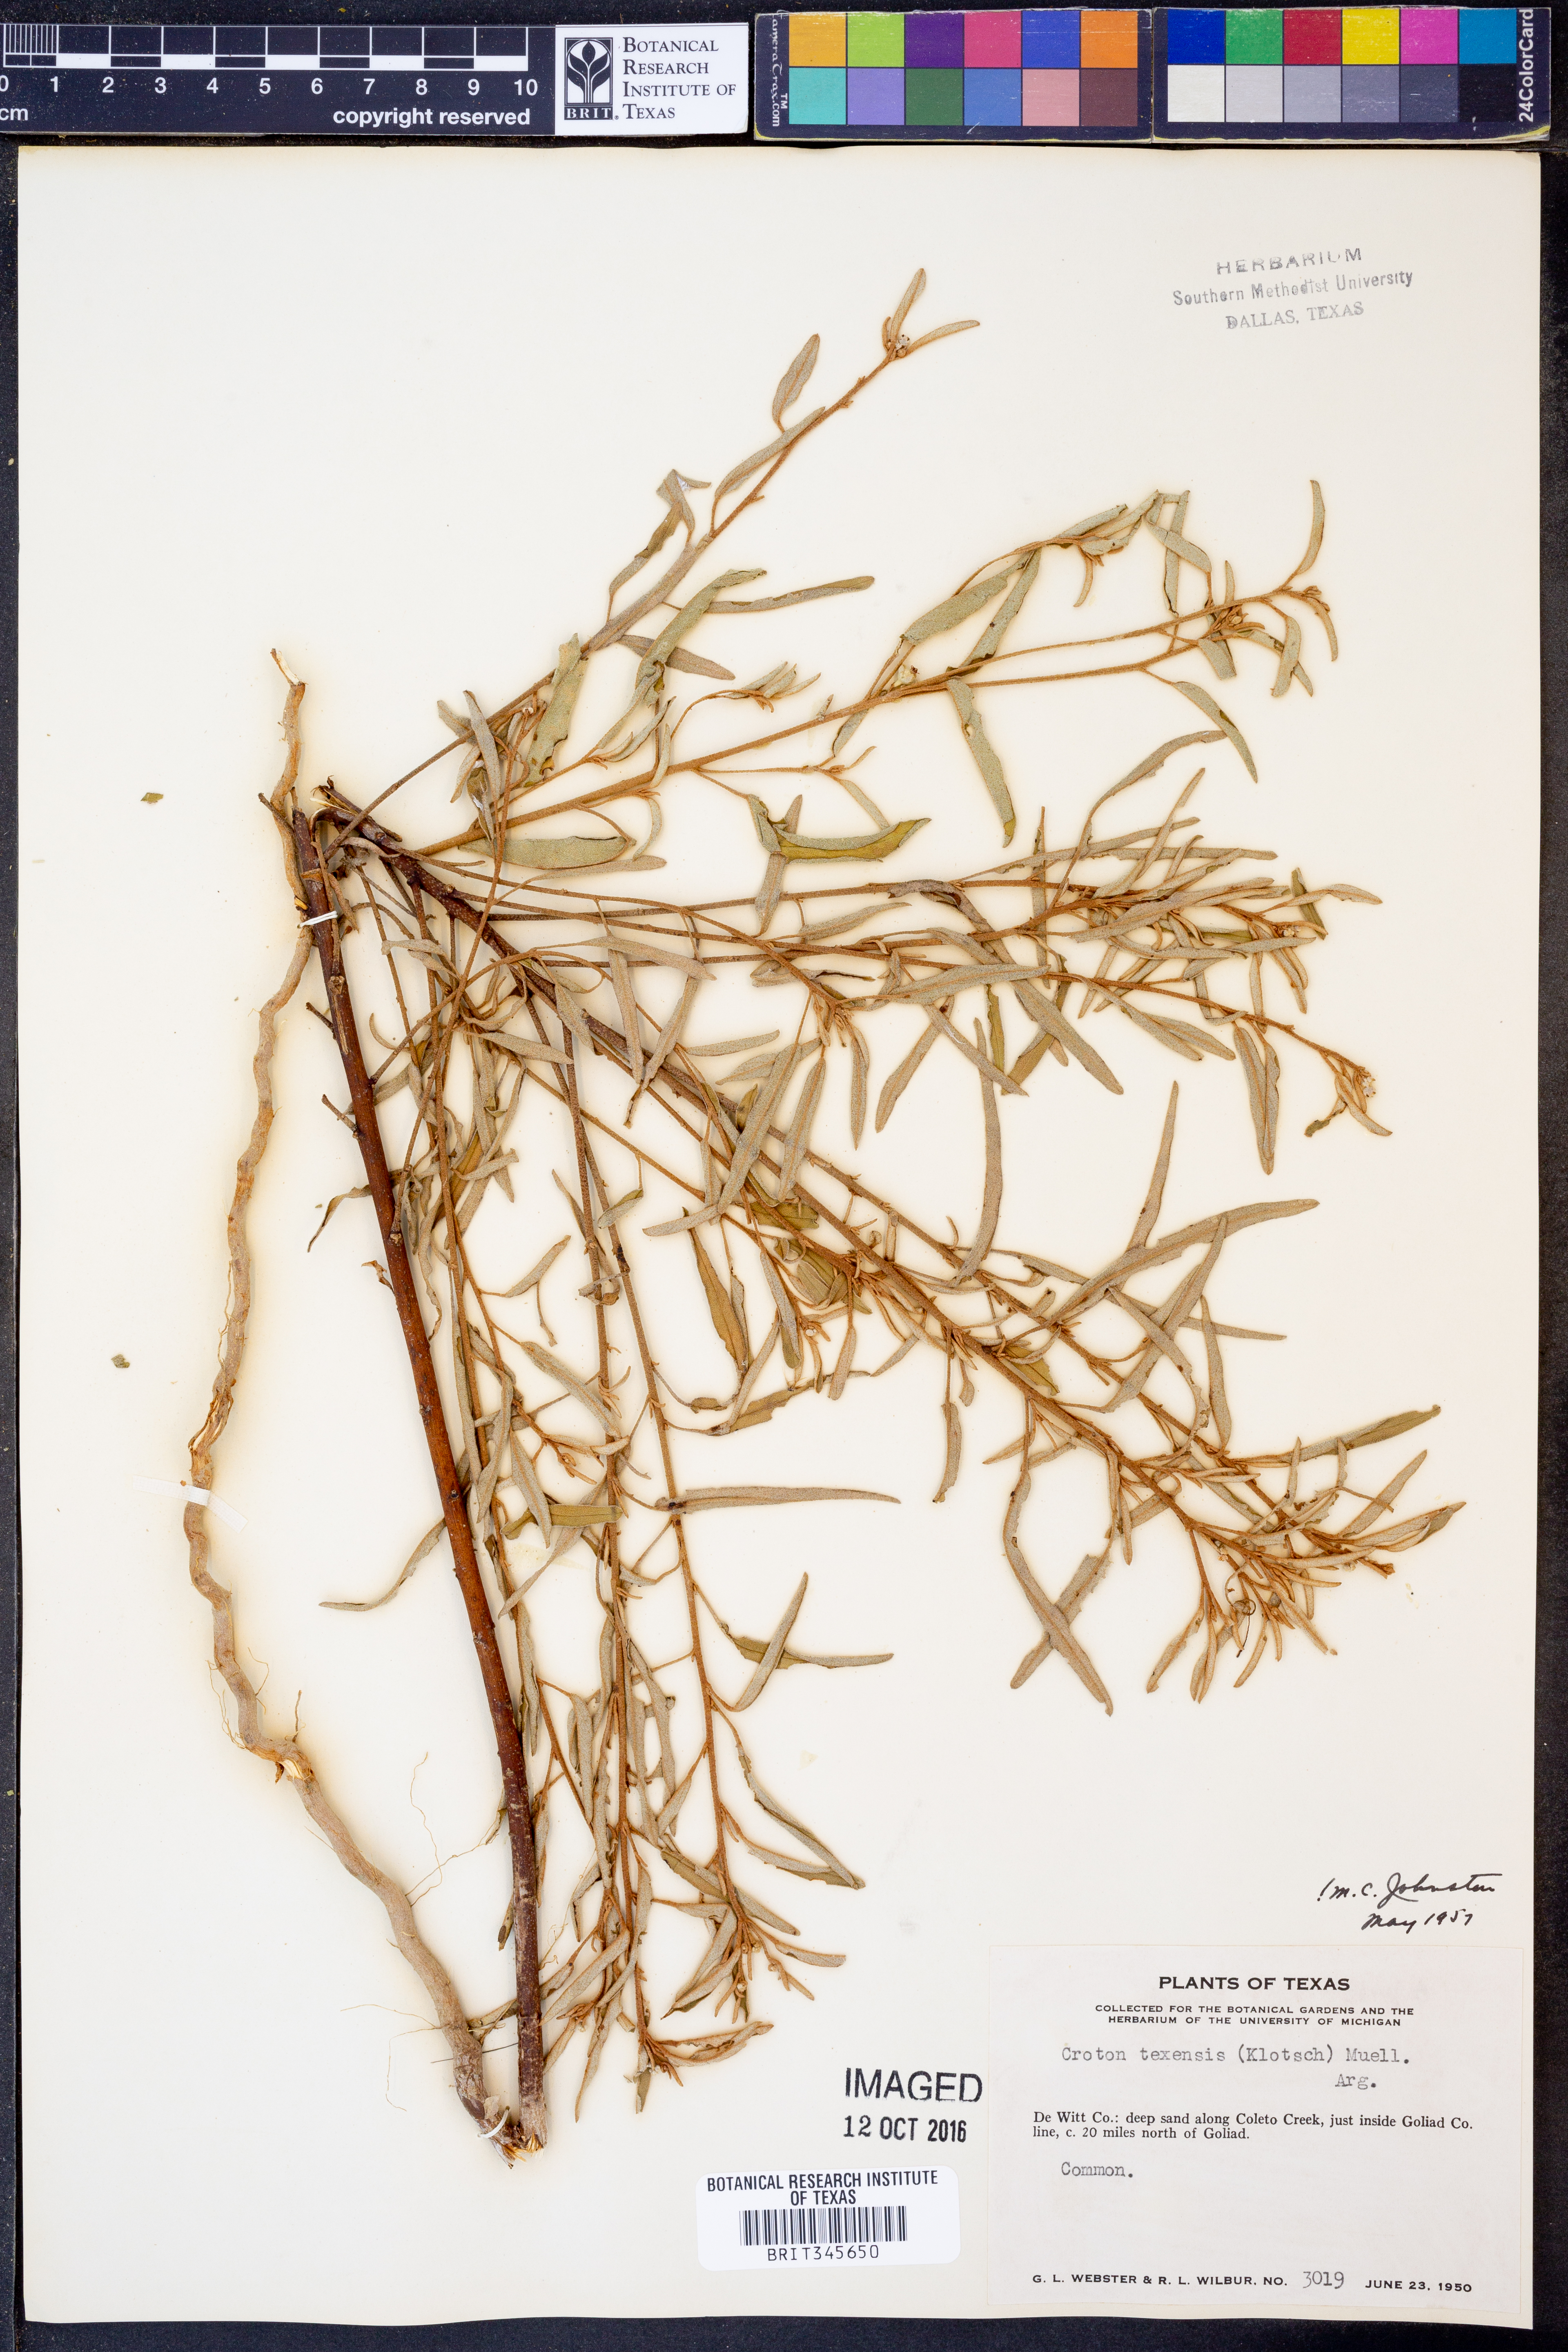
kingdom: Plantae
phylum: Tracheophyta
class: Magnoliopsida
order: Malpighiales
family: Euphorbiaceae
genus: Croton
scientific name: Croton texensis
